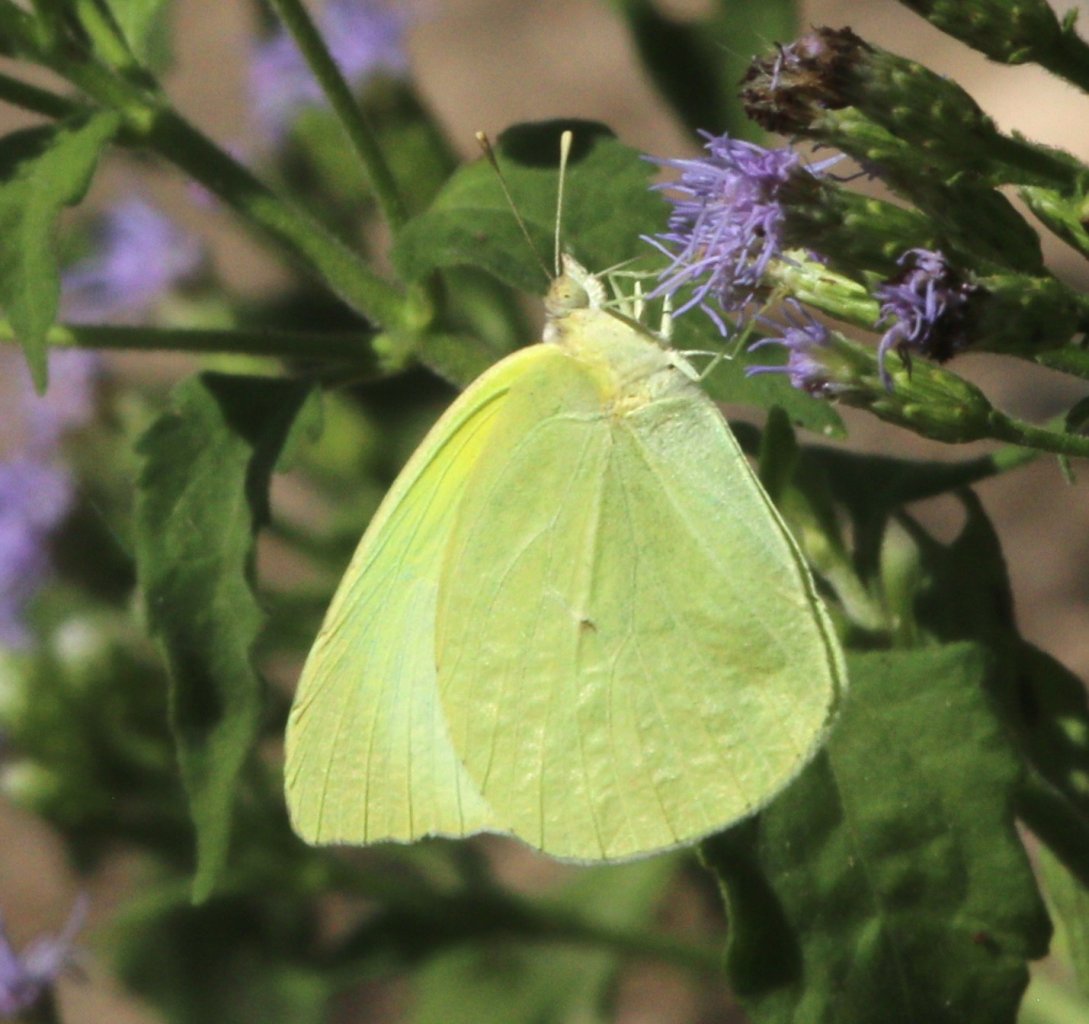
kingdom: Animalia
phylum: Arthropoda
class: Insecta
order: Lepidoptera
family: Pieridae
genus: Kricogonia
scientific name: Kricogonia lyside
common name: Lyside Sulphur
